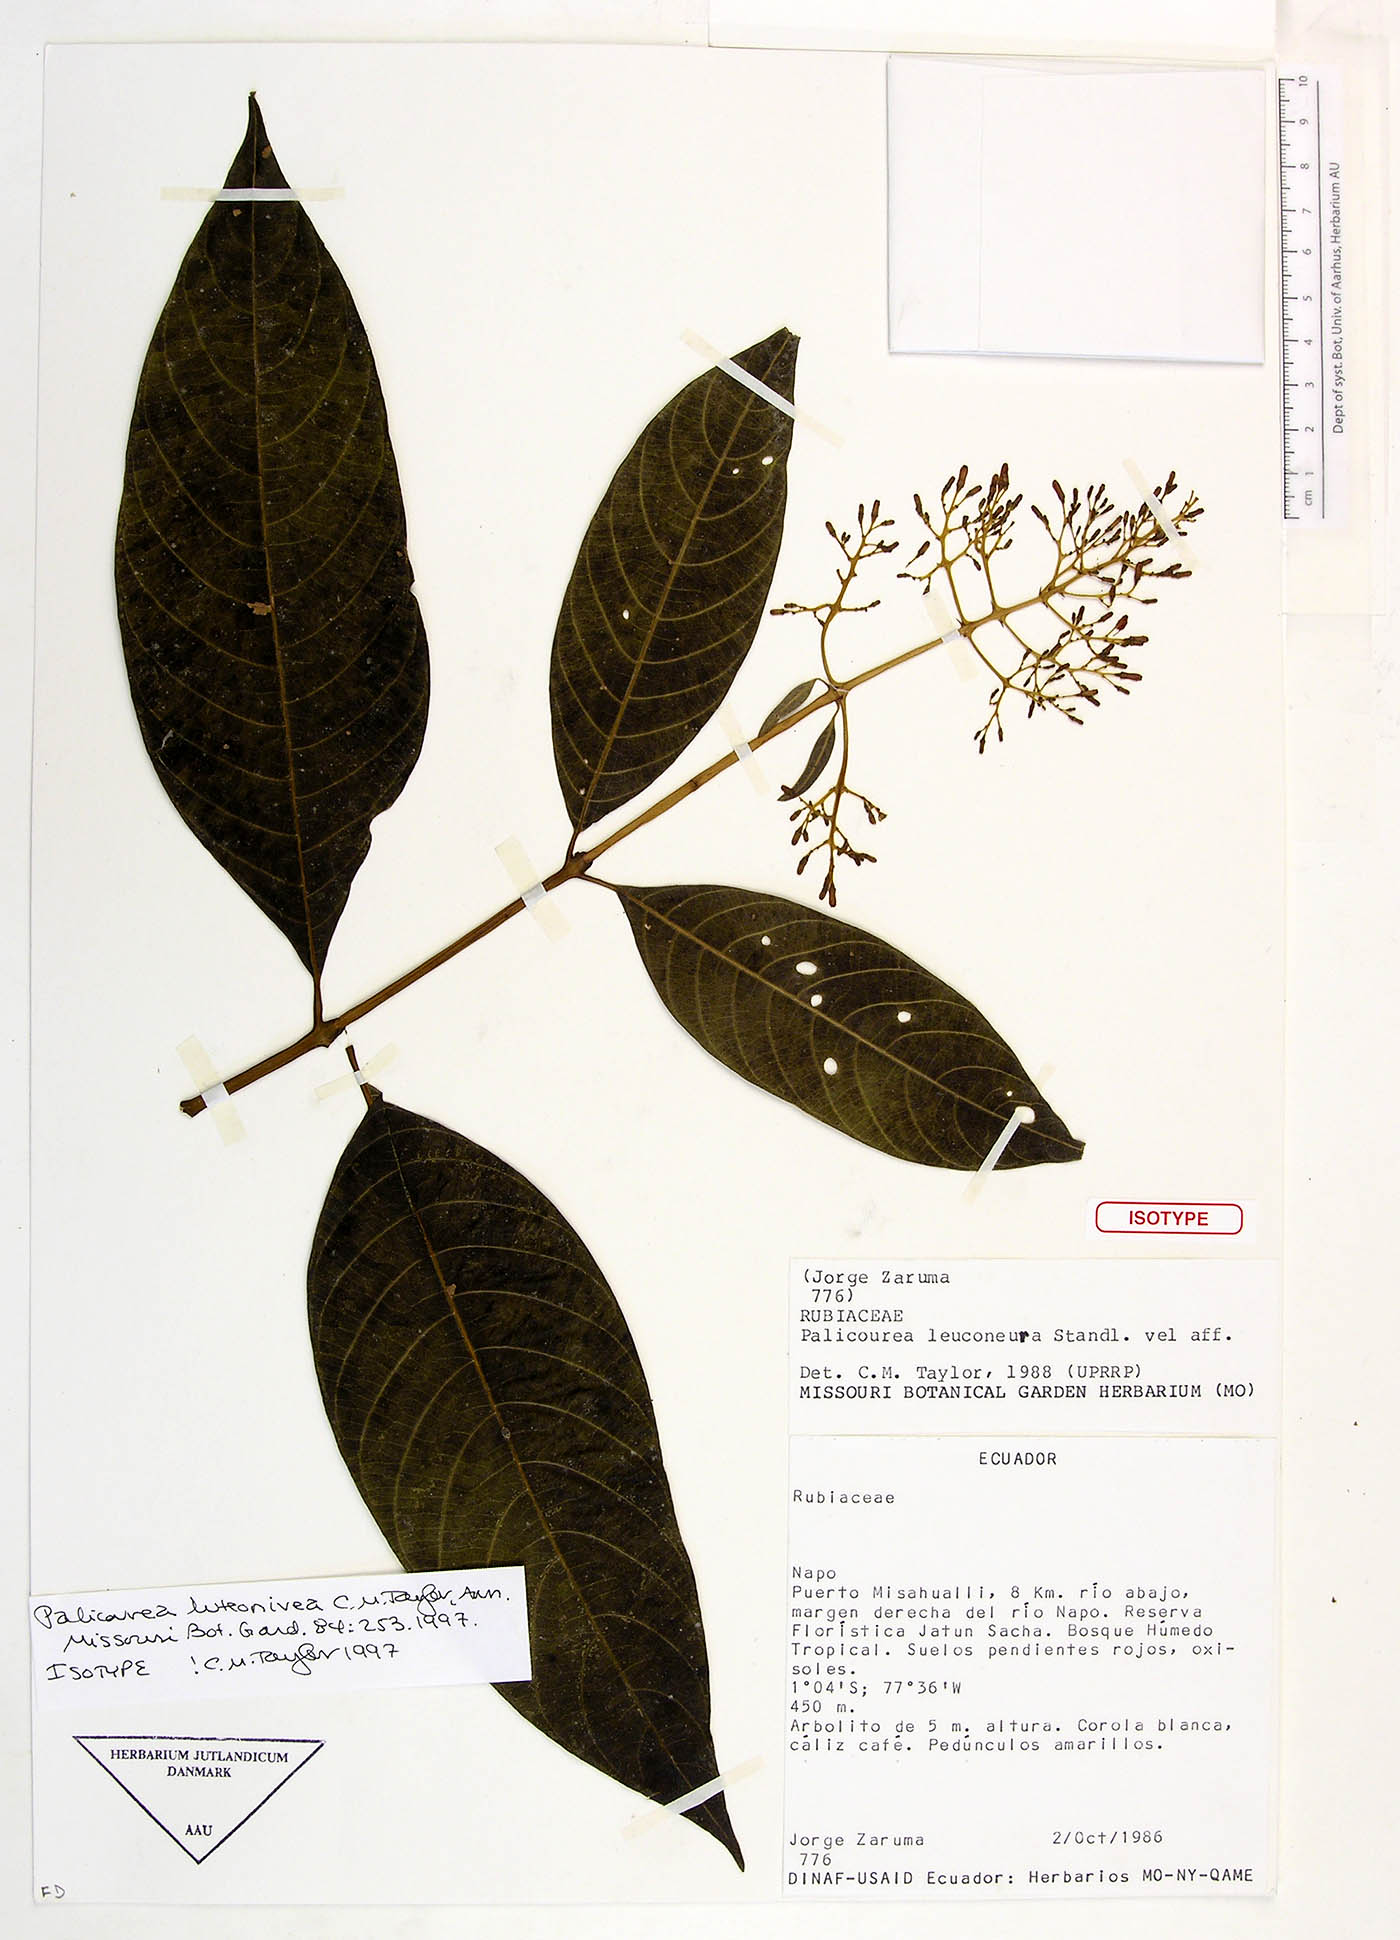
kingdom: Plantae
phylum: Tracheophyta
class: Magnoliopsida
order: Gentianales
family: Rubiaceae
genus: Palicourea
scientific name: Palicourea luteonivea
